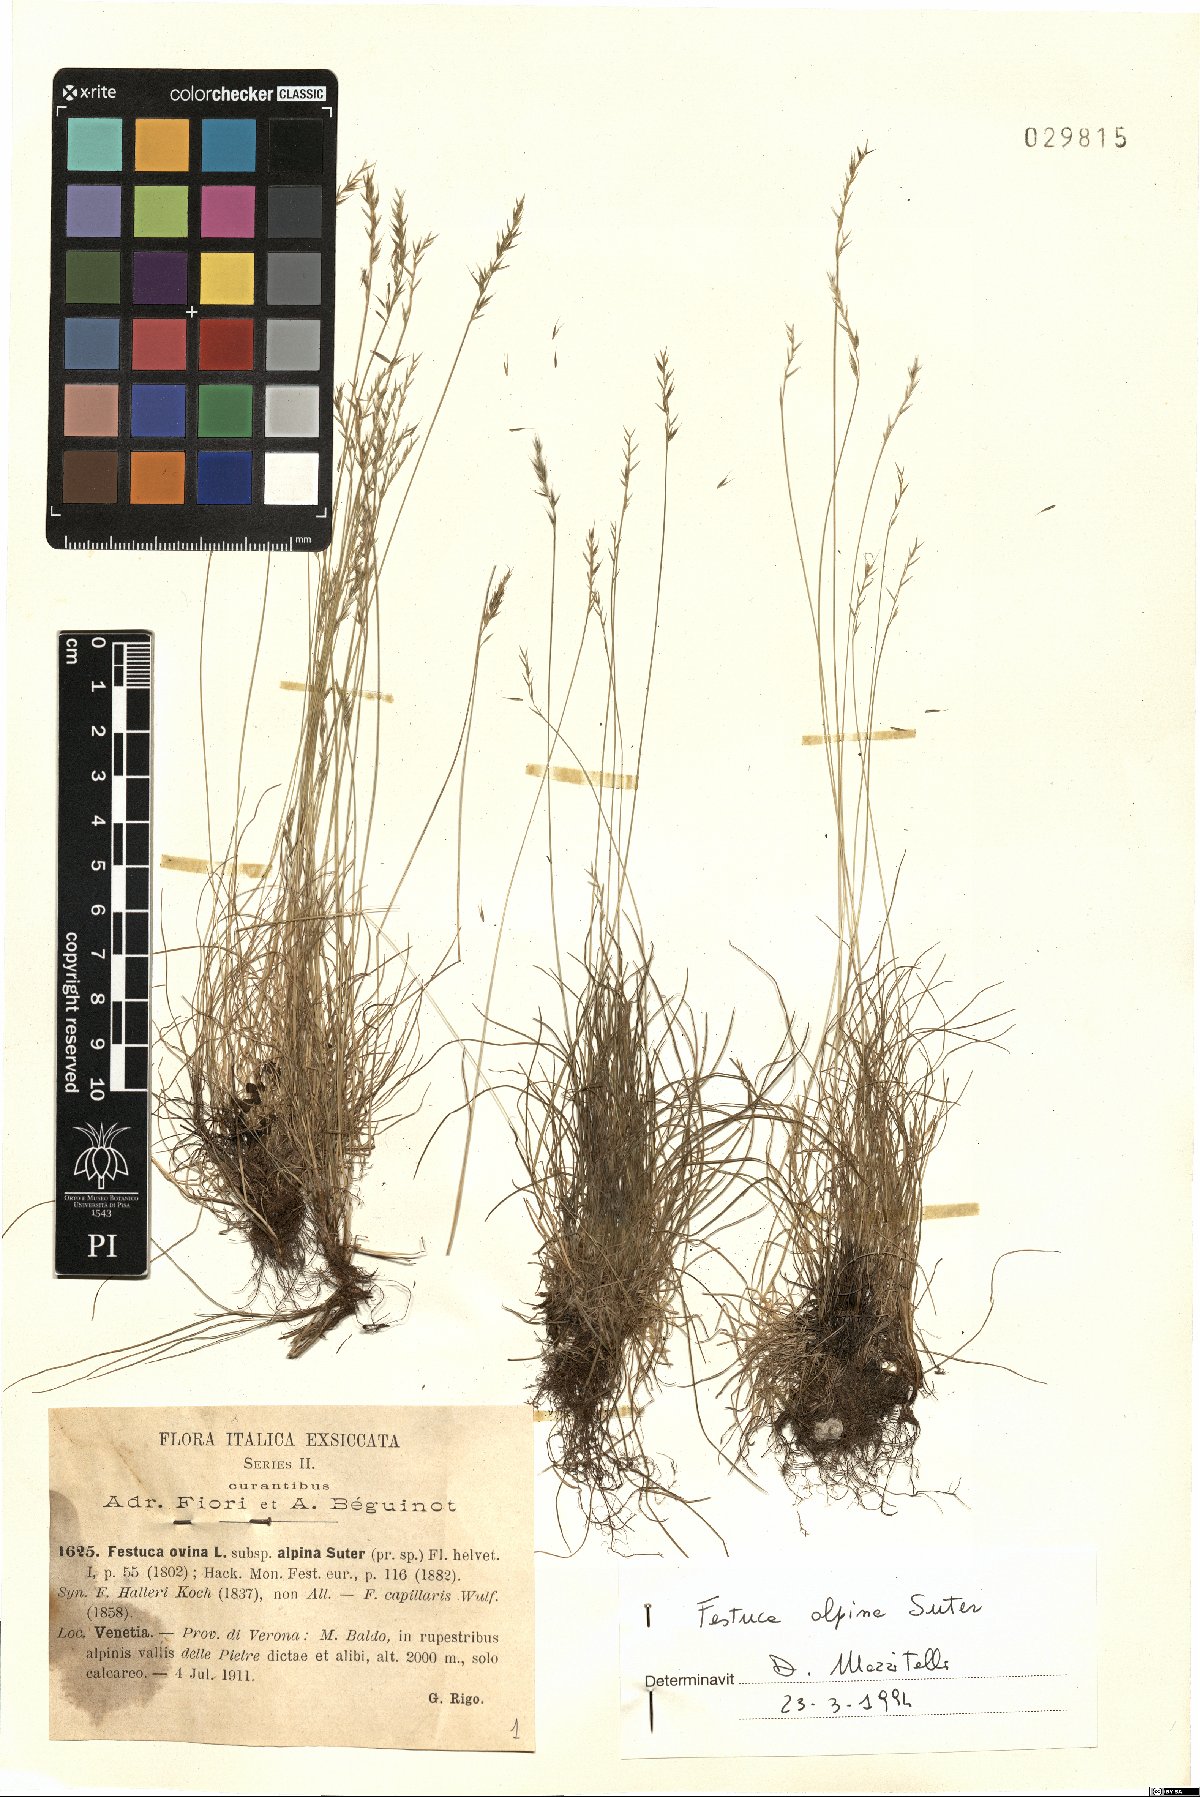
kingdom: Plantae
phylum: Tracheophyta
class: Liliopsida
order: Poales
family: Poaceae
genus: Festuca
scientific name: Festuca alpina
